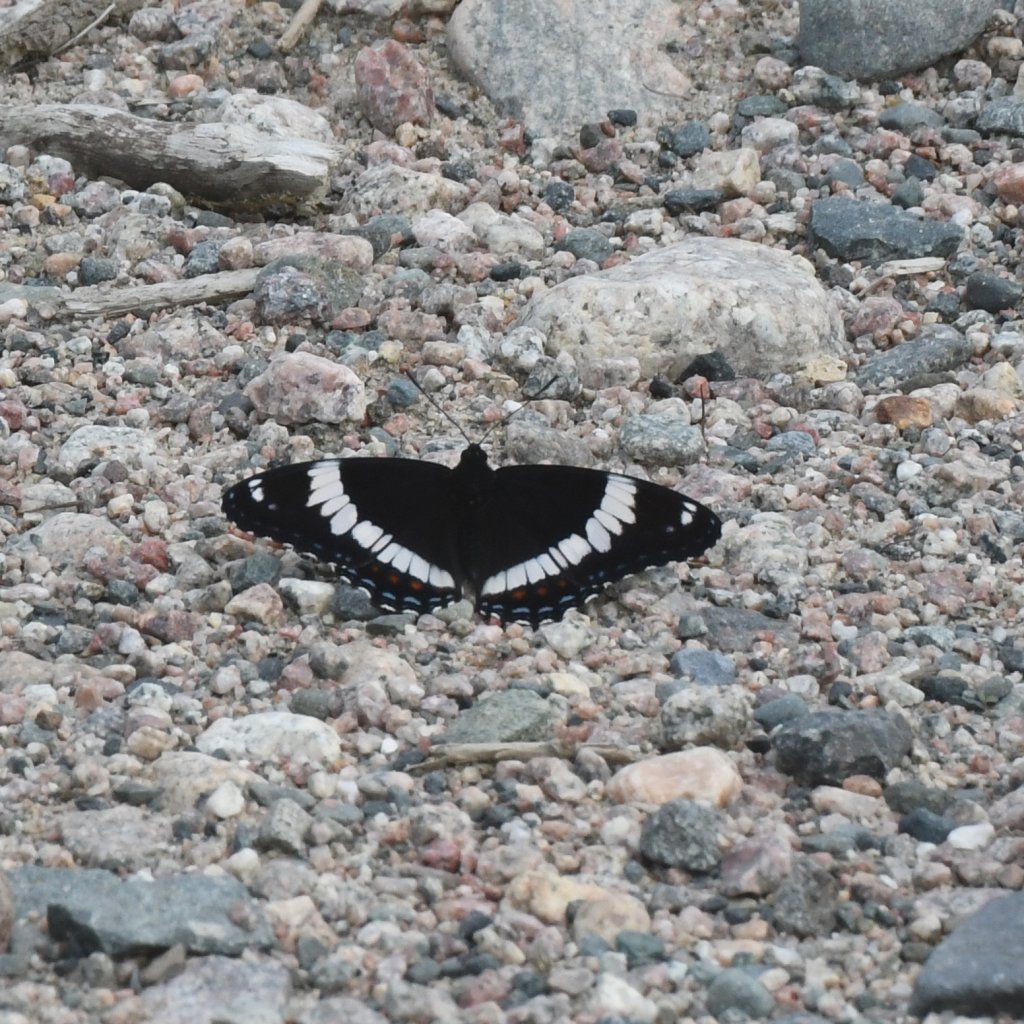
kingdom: Animalia
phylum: Arthropoda
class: Insecta
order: Lepidoptera
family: Nymphalidae
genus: Limenitis
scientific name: Limenitis arthemis
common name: Red-spotted Admiral
